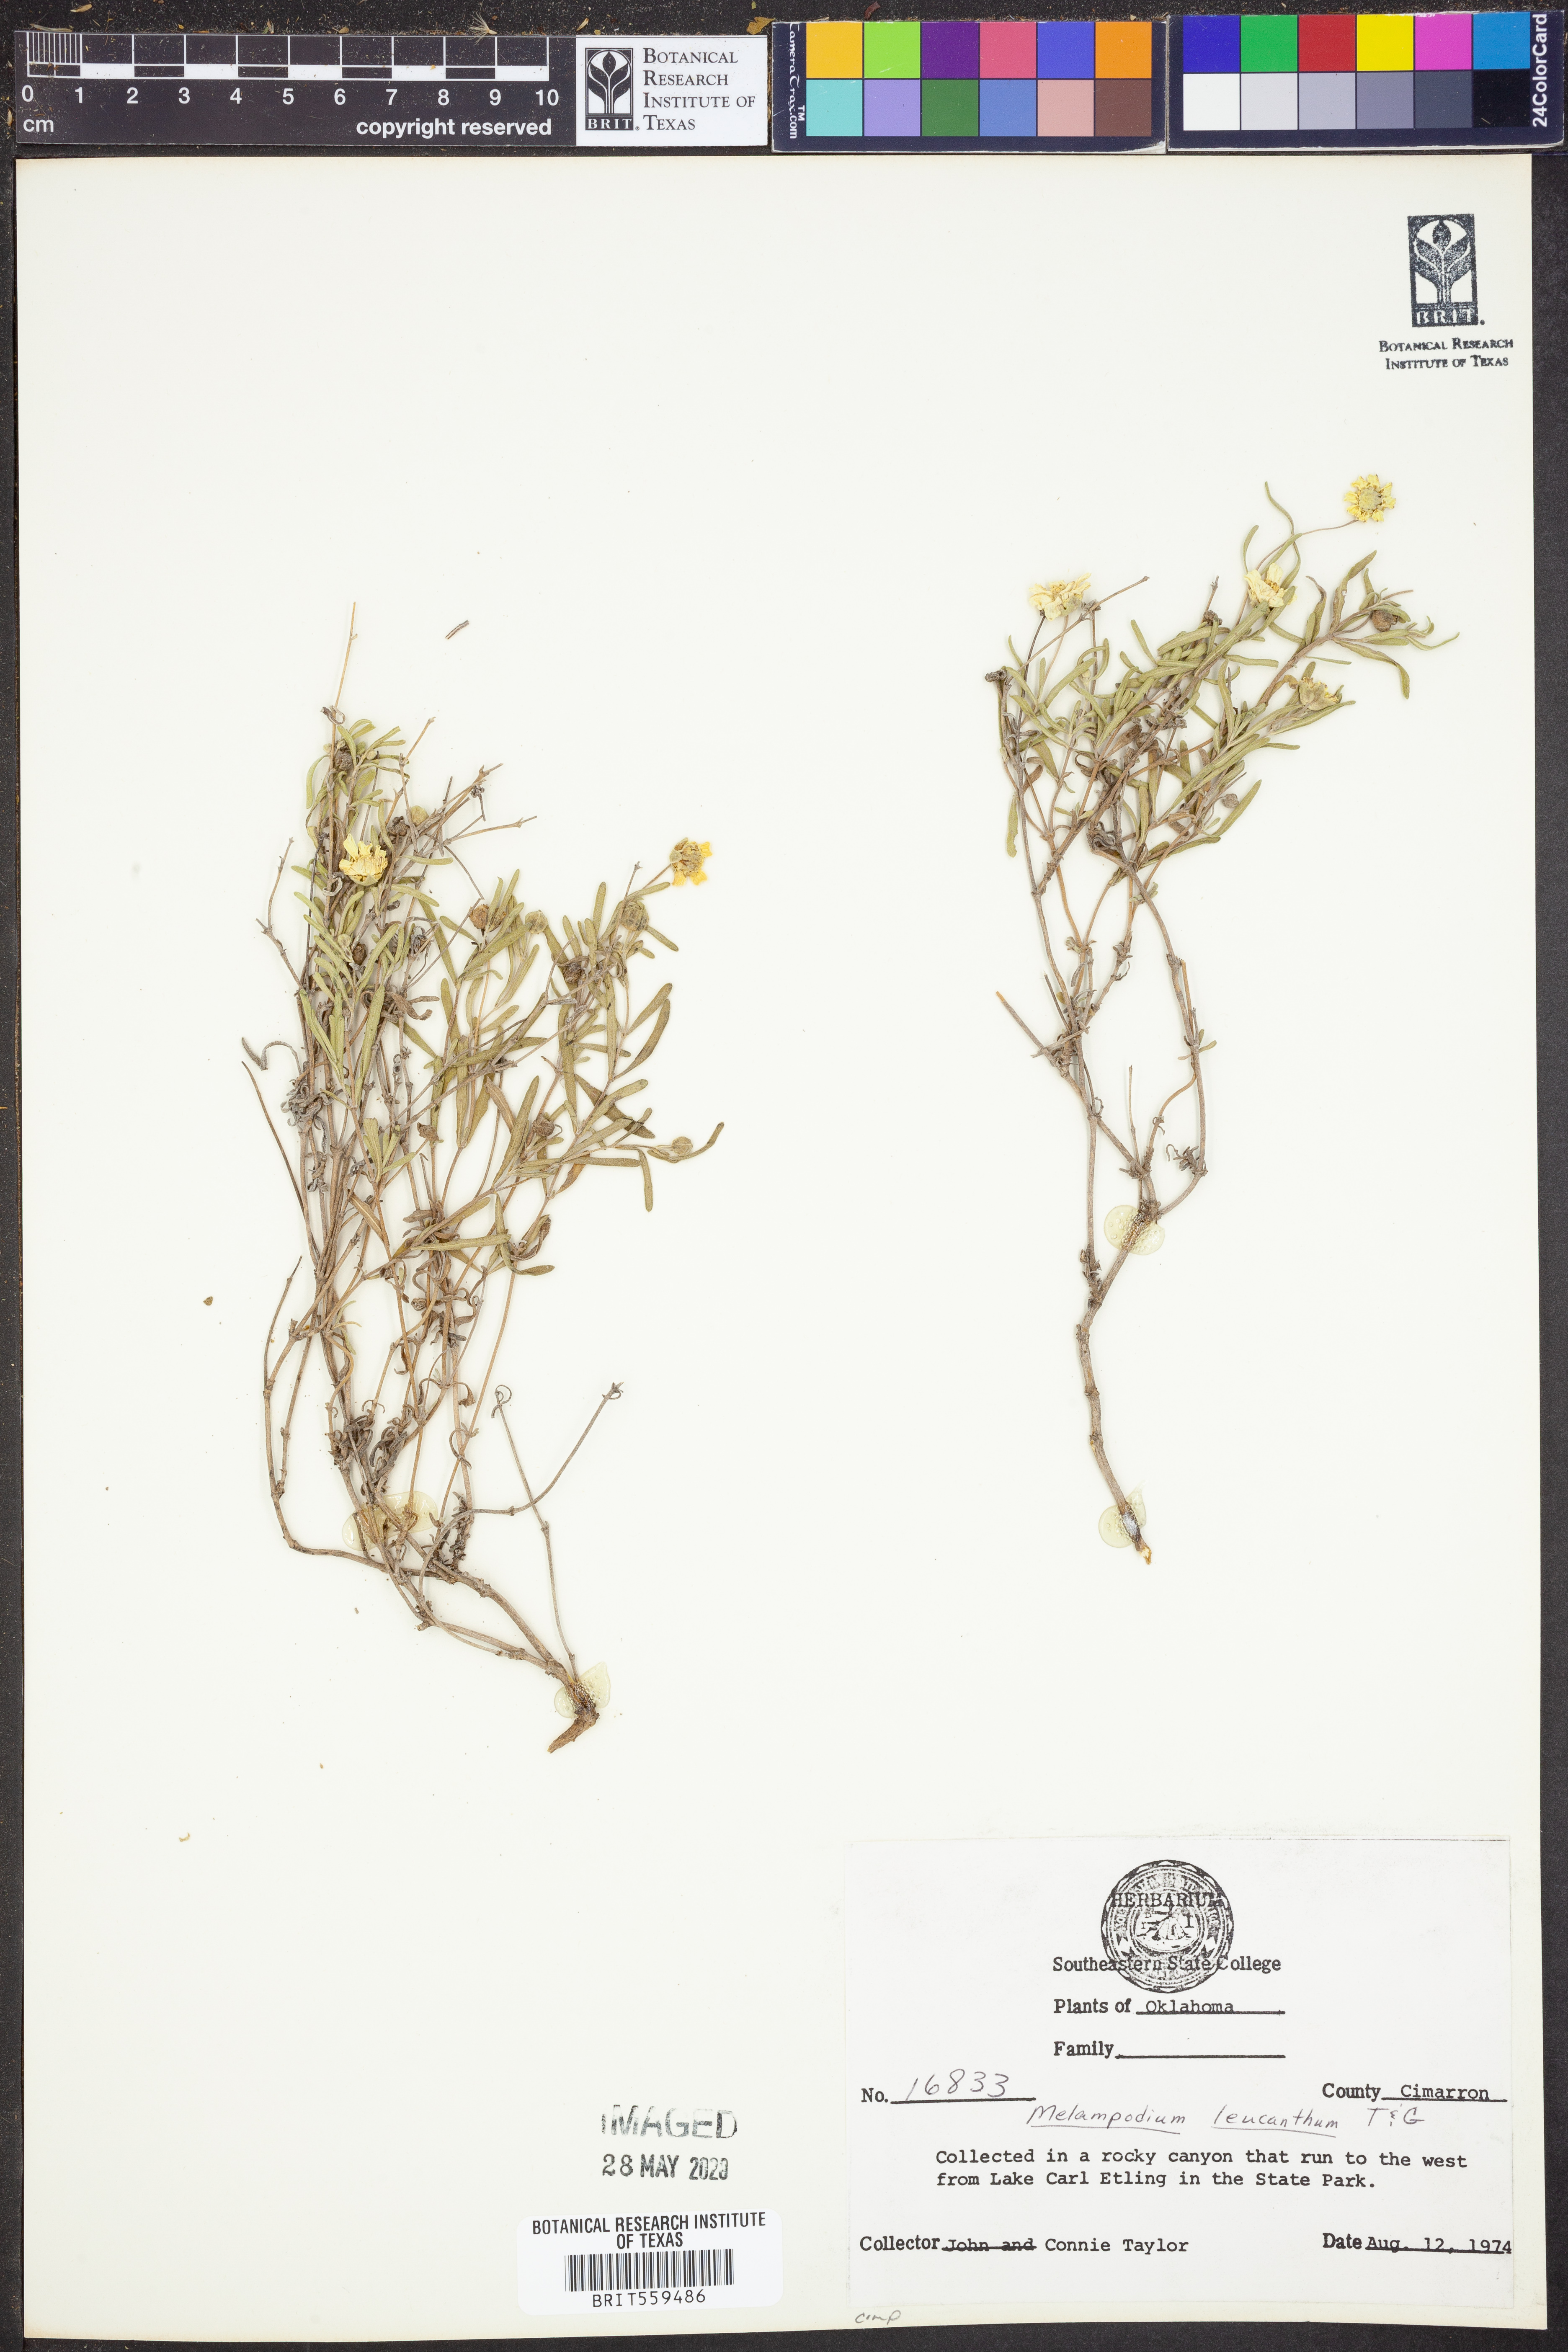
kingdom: Plantae
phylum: Tracheophyta
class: Magnoliopsida
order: Asterales
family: Asteraceae
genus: Melampodium
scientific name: Melampodium leucanthum
